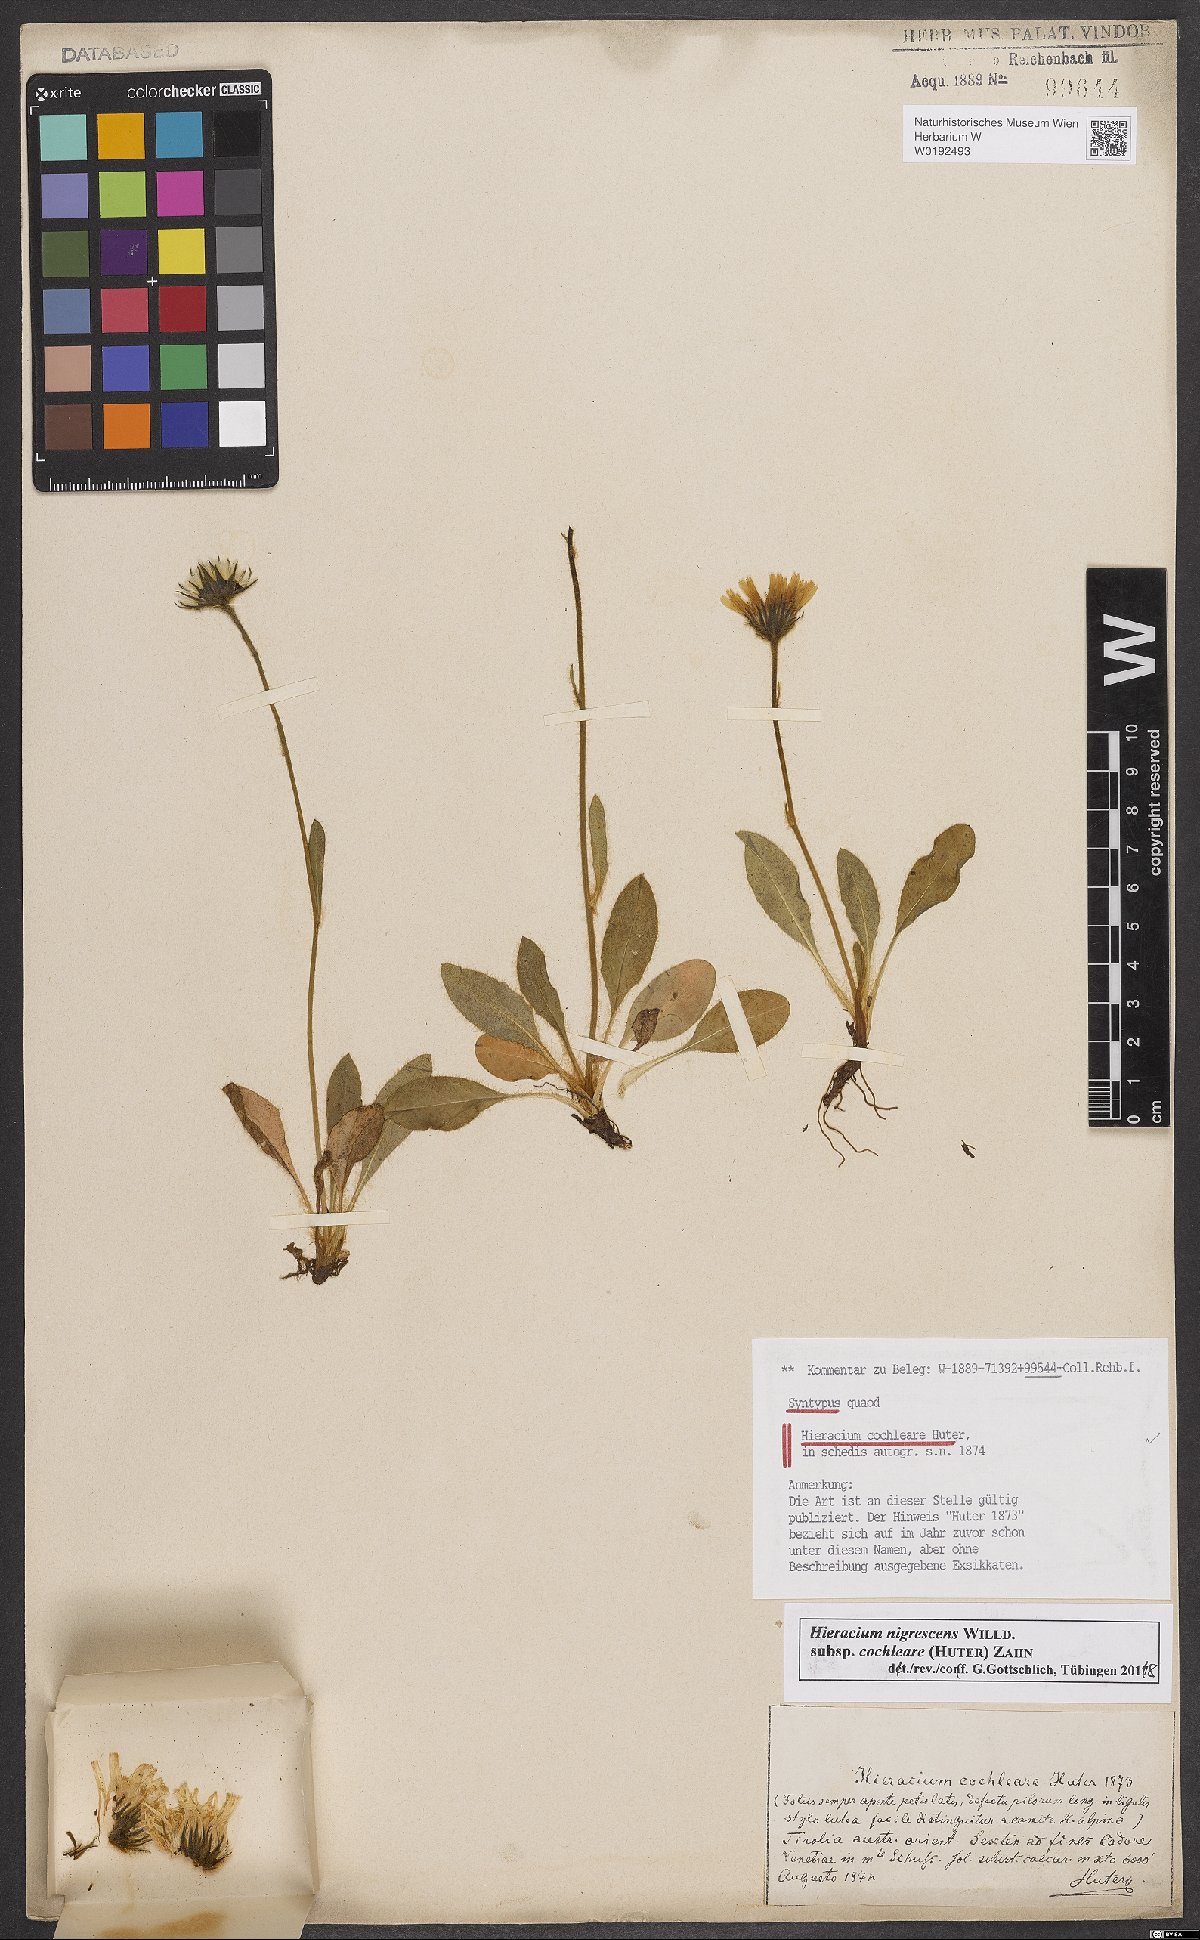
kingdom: Plantae
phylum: Tracheophyta
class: Magnoliopsida
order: Asterales
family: Asteraceae
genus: Hieracium
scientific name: Hieracium nigrescens
